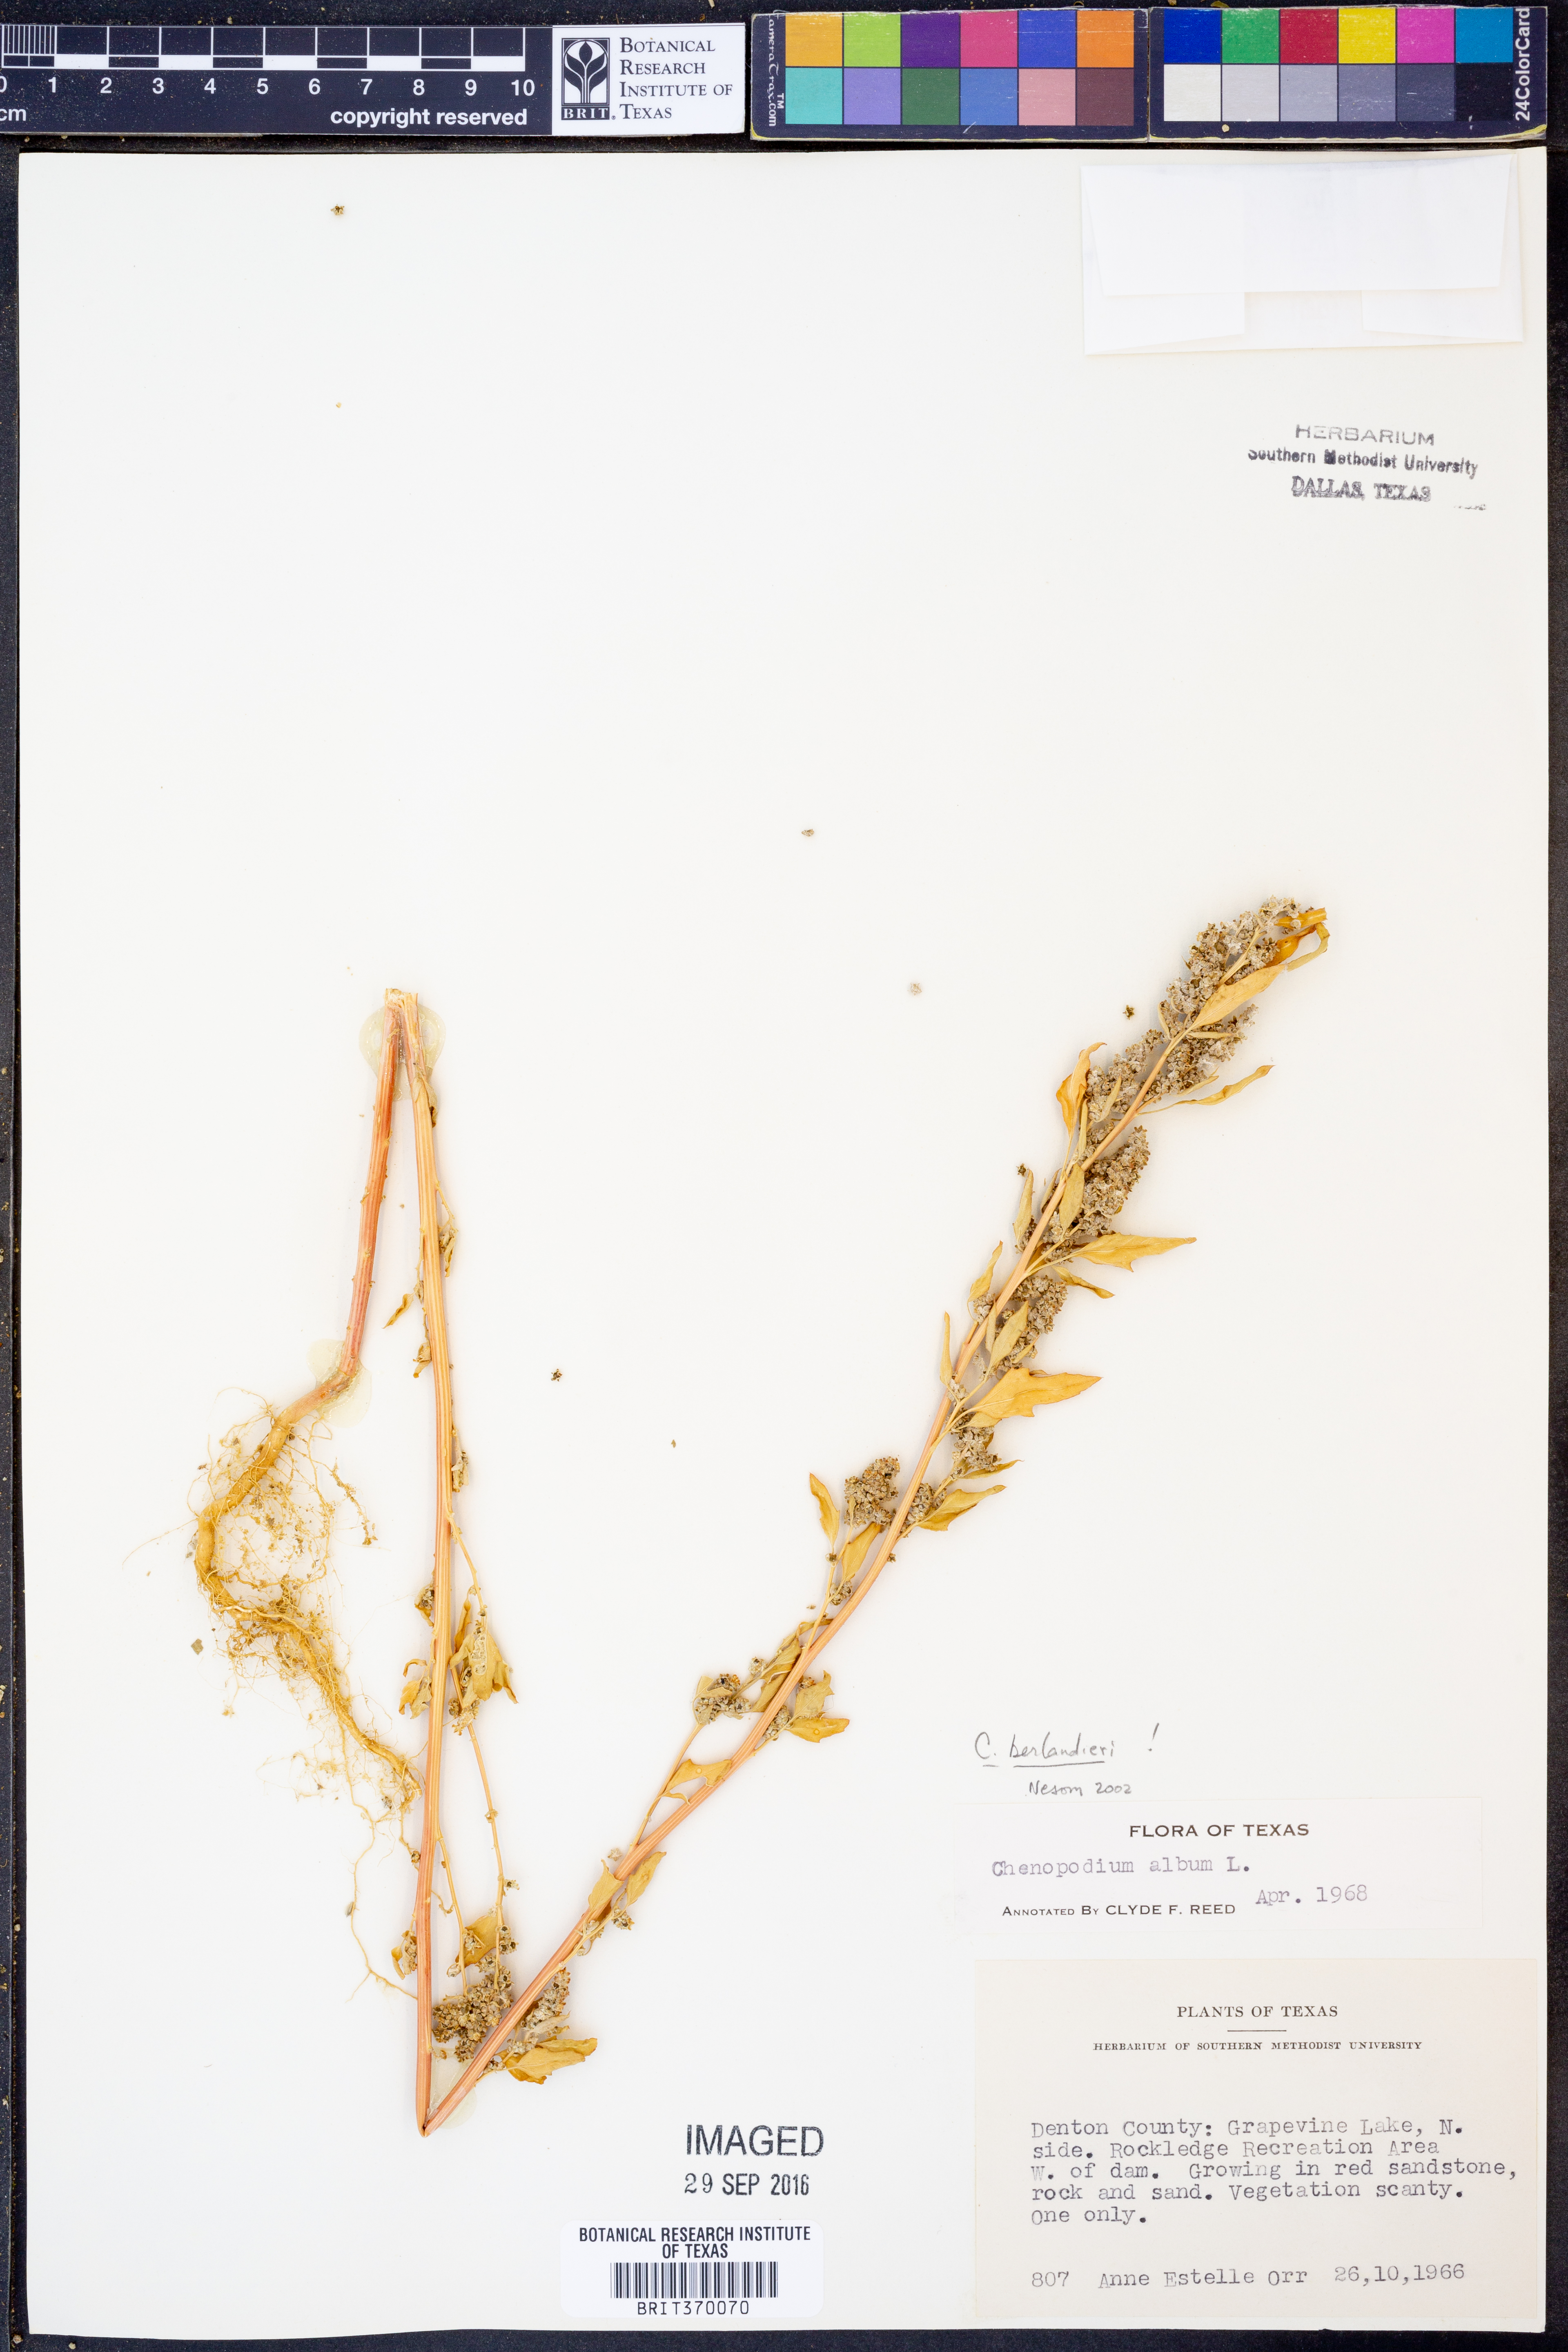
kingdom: Plantae
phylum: Tracheophyta
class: Magnoliopsida
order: Caryophyllales
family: Amaranthaceae
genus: Chenopodium
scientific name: Chenopodium berlandieri
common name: Pit-seed goosefoot
